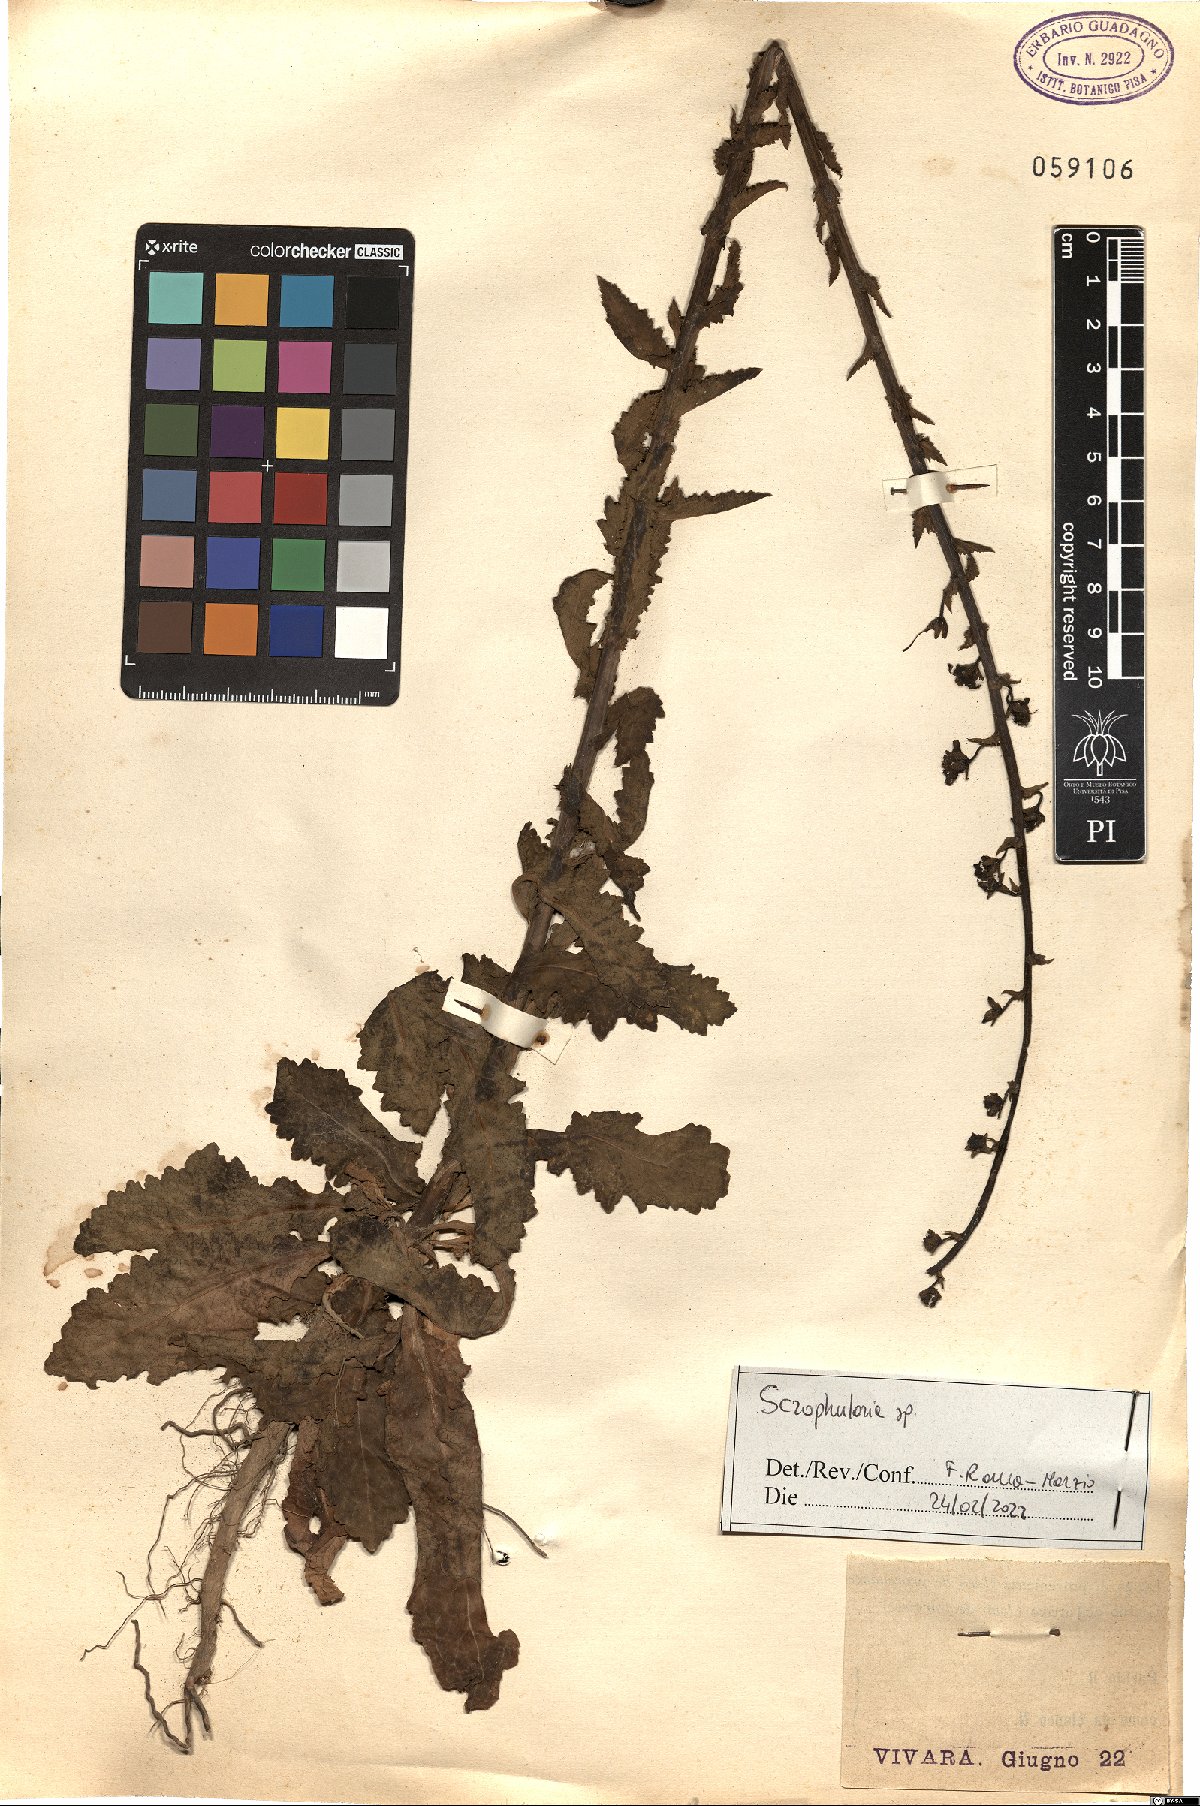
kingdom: Plantae
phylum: Tracheophyta
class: Magnoliopsida
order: Lamiales
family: Scrophulariaceae
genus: Scrophularia
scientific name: Scrophularia
